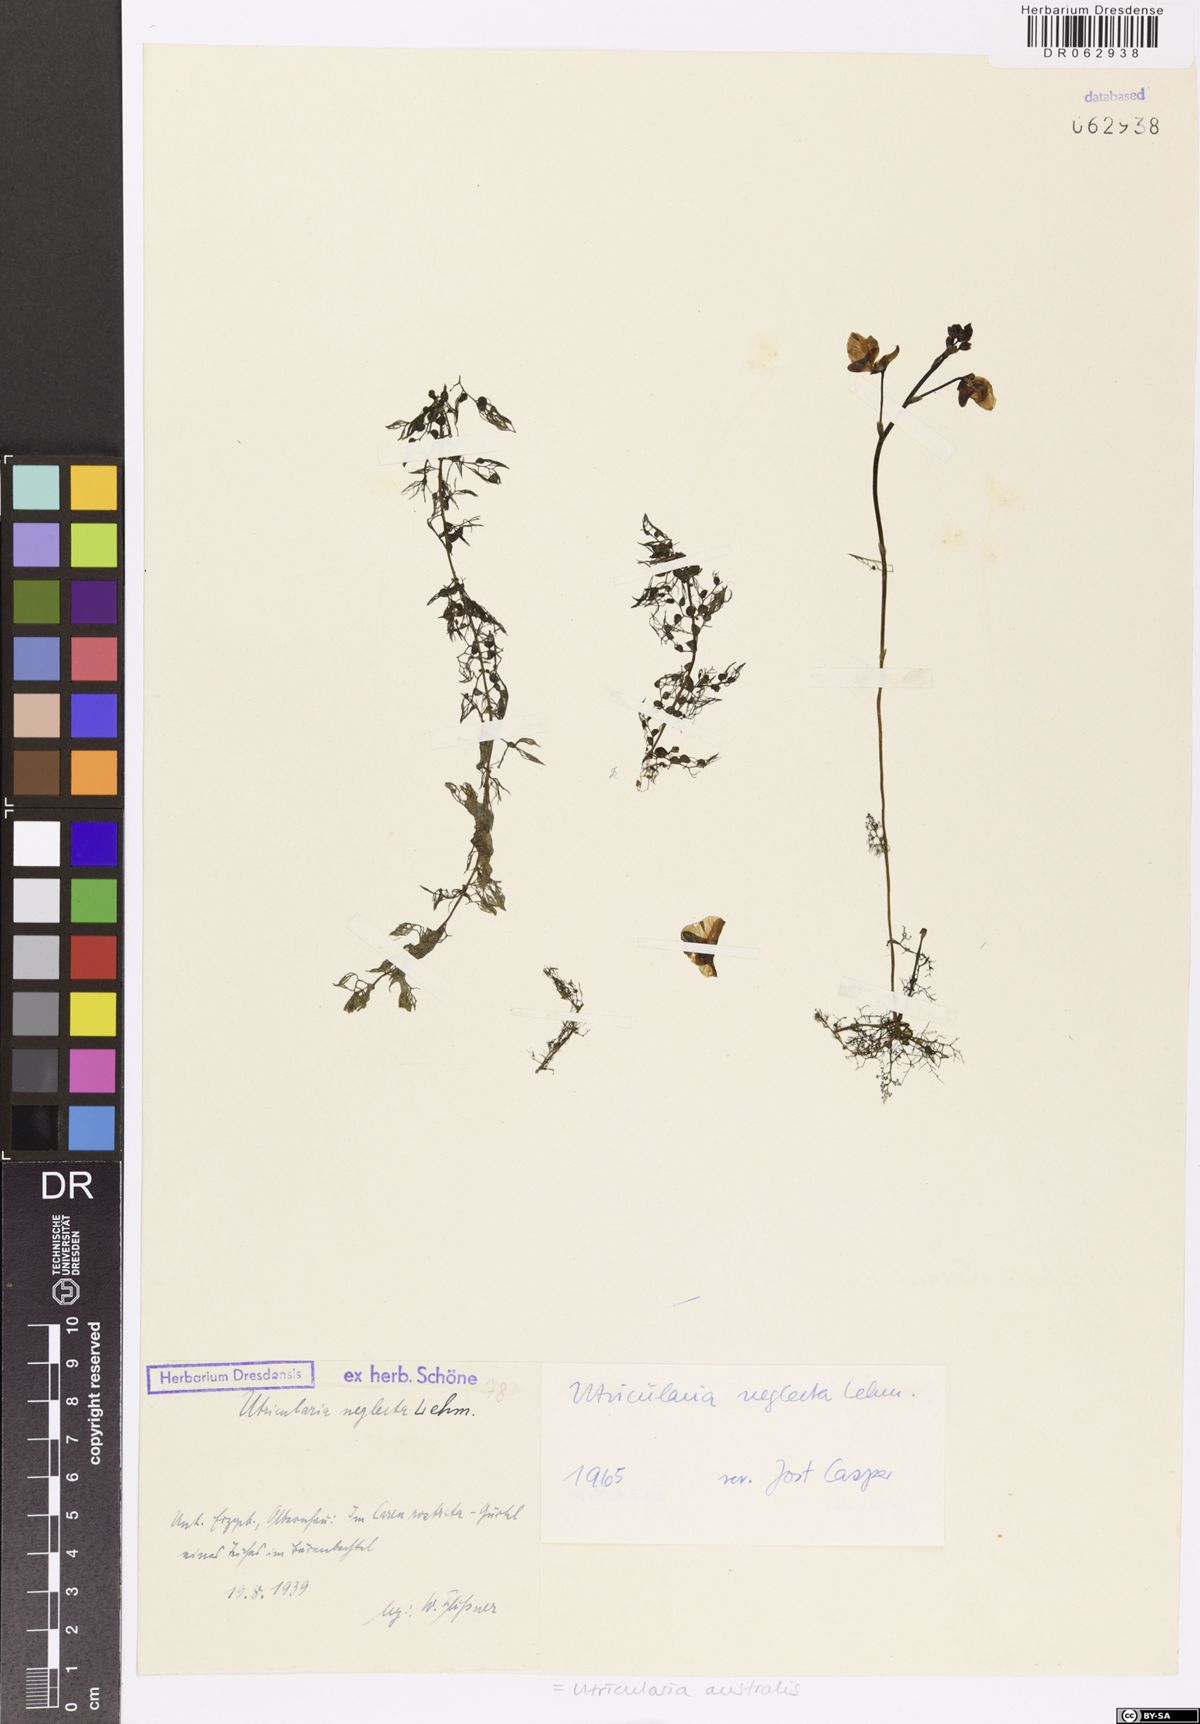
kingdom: Plantae
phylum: Tracheophyta
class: Magnoliopsida
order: Lamiales
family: Lentibulariaceae
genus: Utricularia
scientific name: Utricularia australis
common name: Bladderwort
